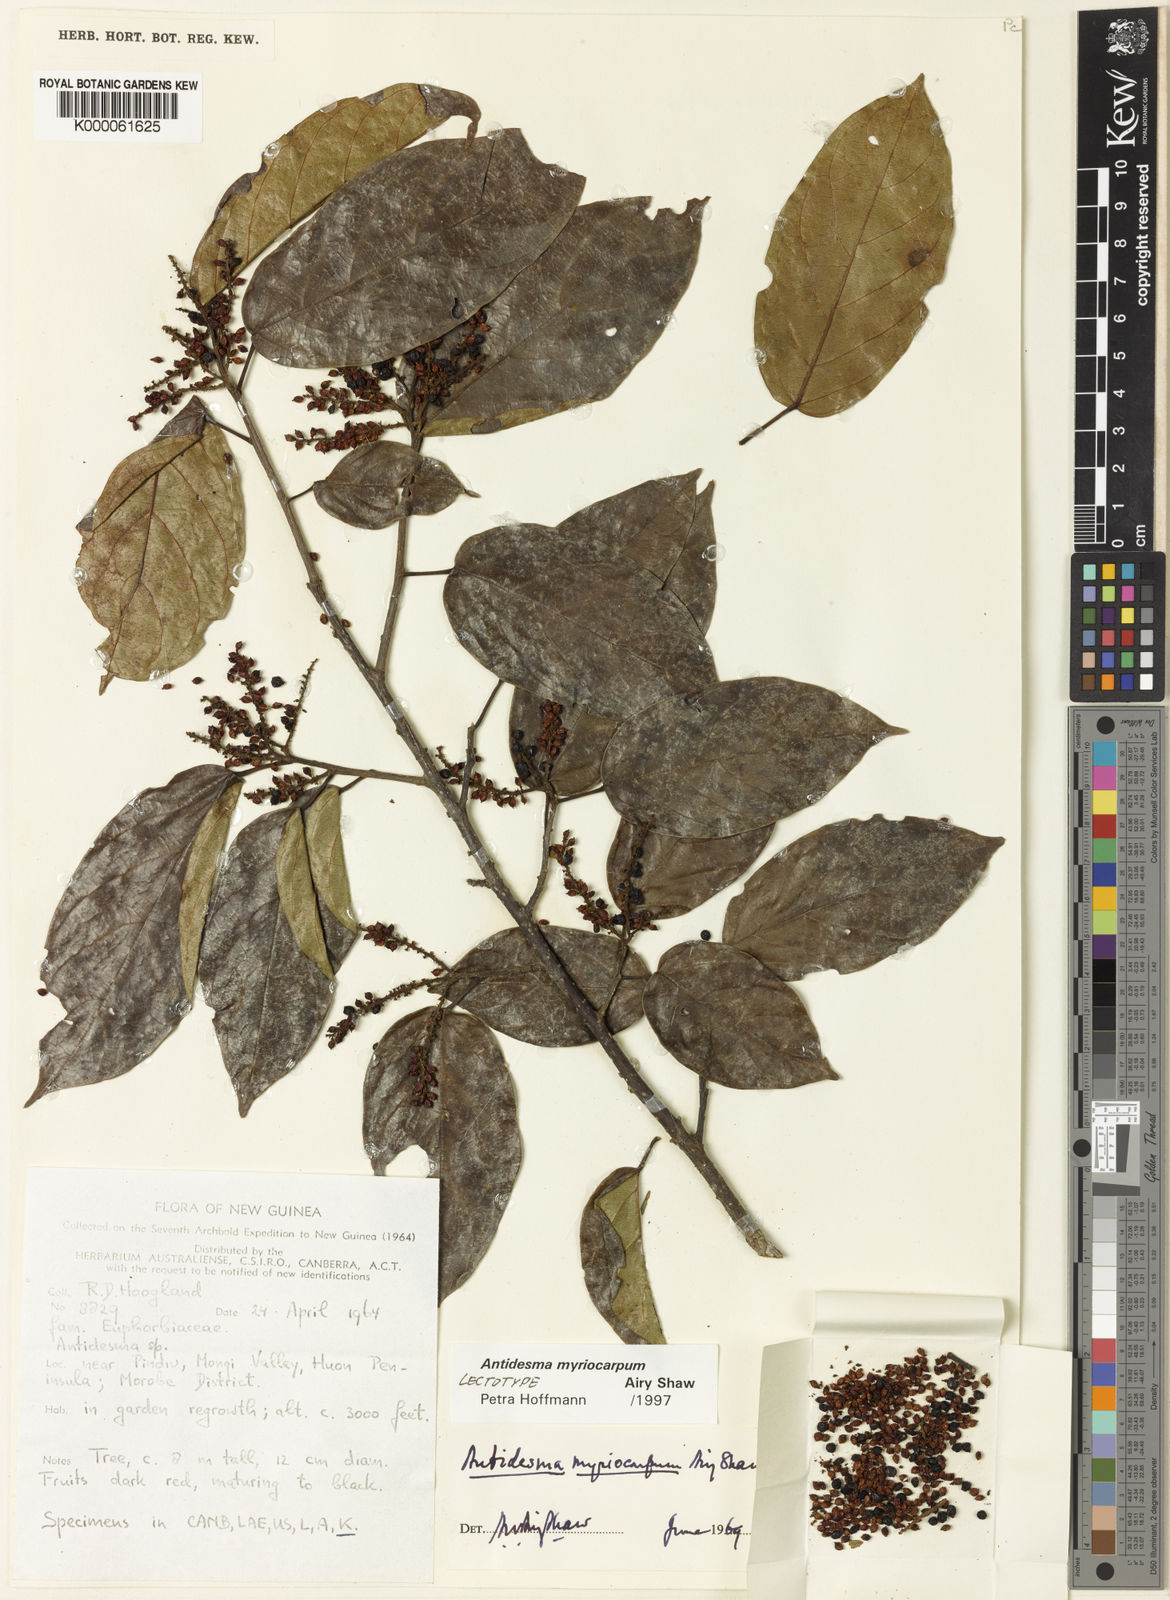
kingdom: Plantae
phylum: Tracheophyta
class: Magnoliopsida
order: Malpighiales
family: Phyllanthaceae
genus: Antidesma
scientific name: Antidesma myriocarpum
